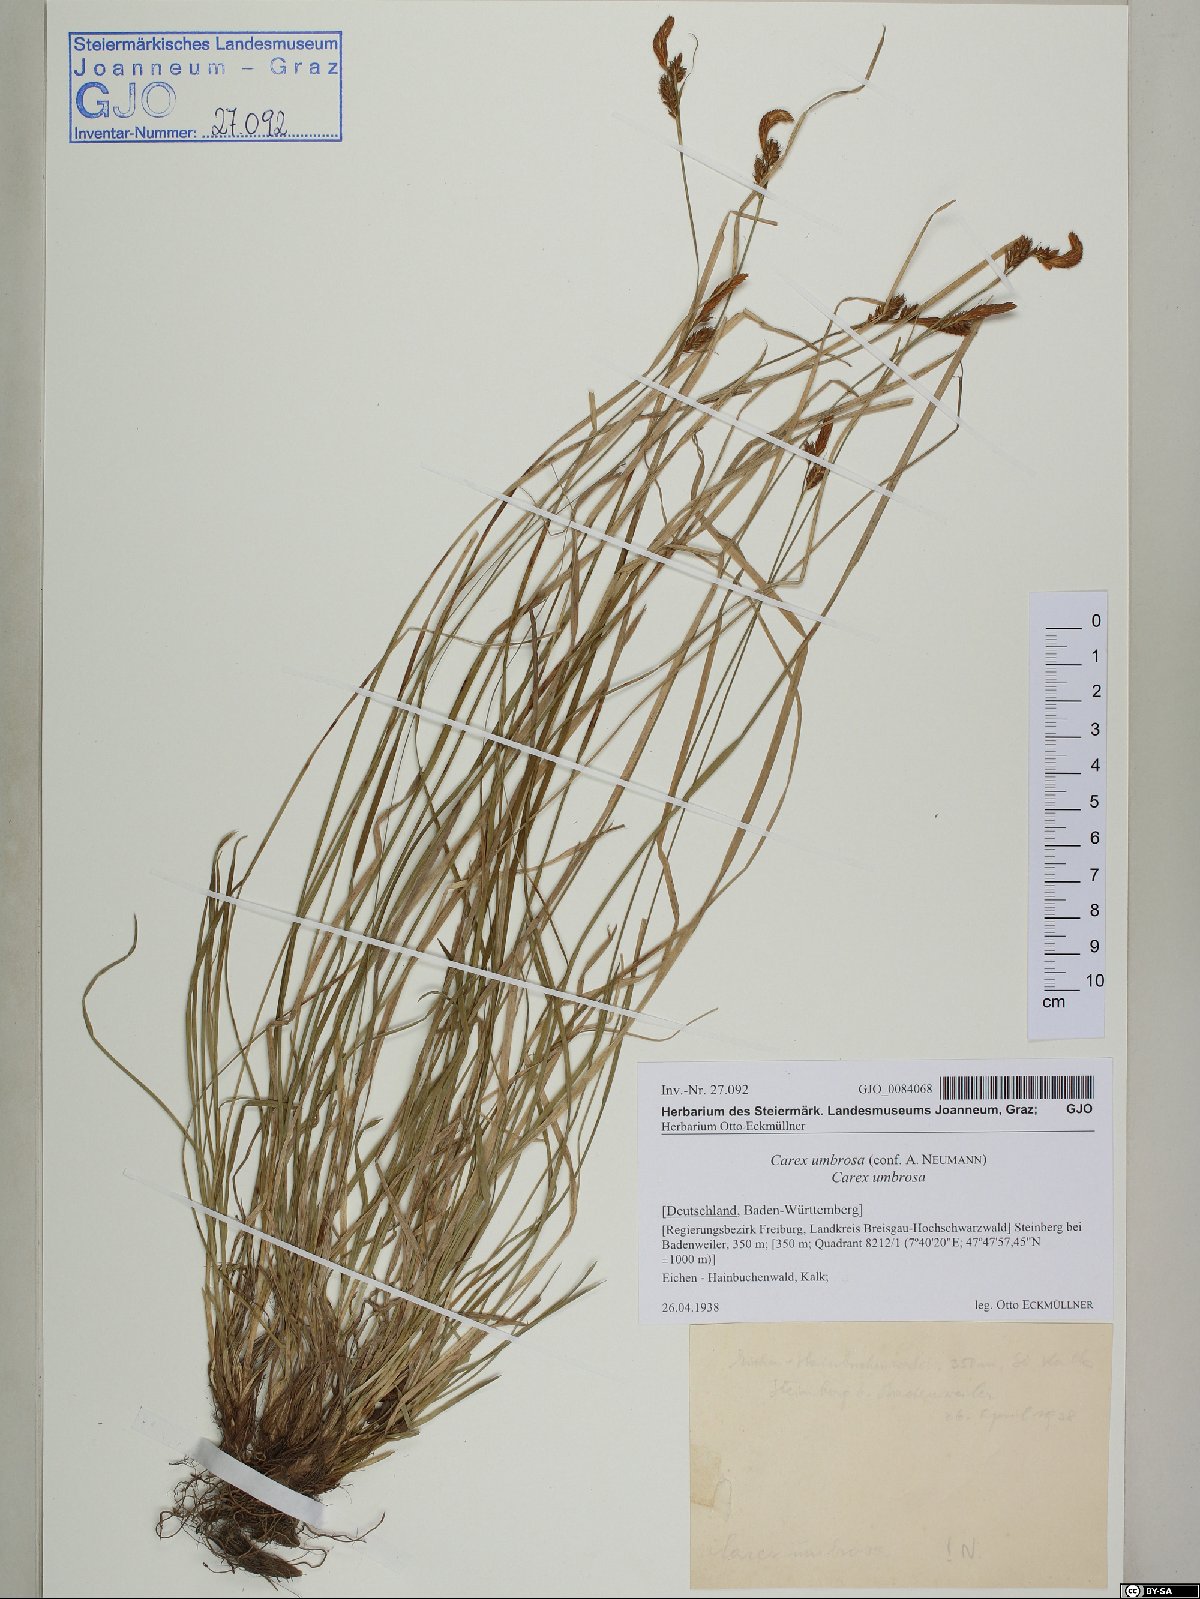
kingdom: Plantae
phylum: Tracheophyta
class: Liliopsida
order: Poales
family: Cyperaceae
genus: Carex
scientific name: Carex umbrosa
